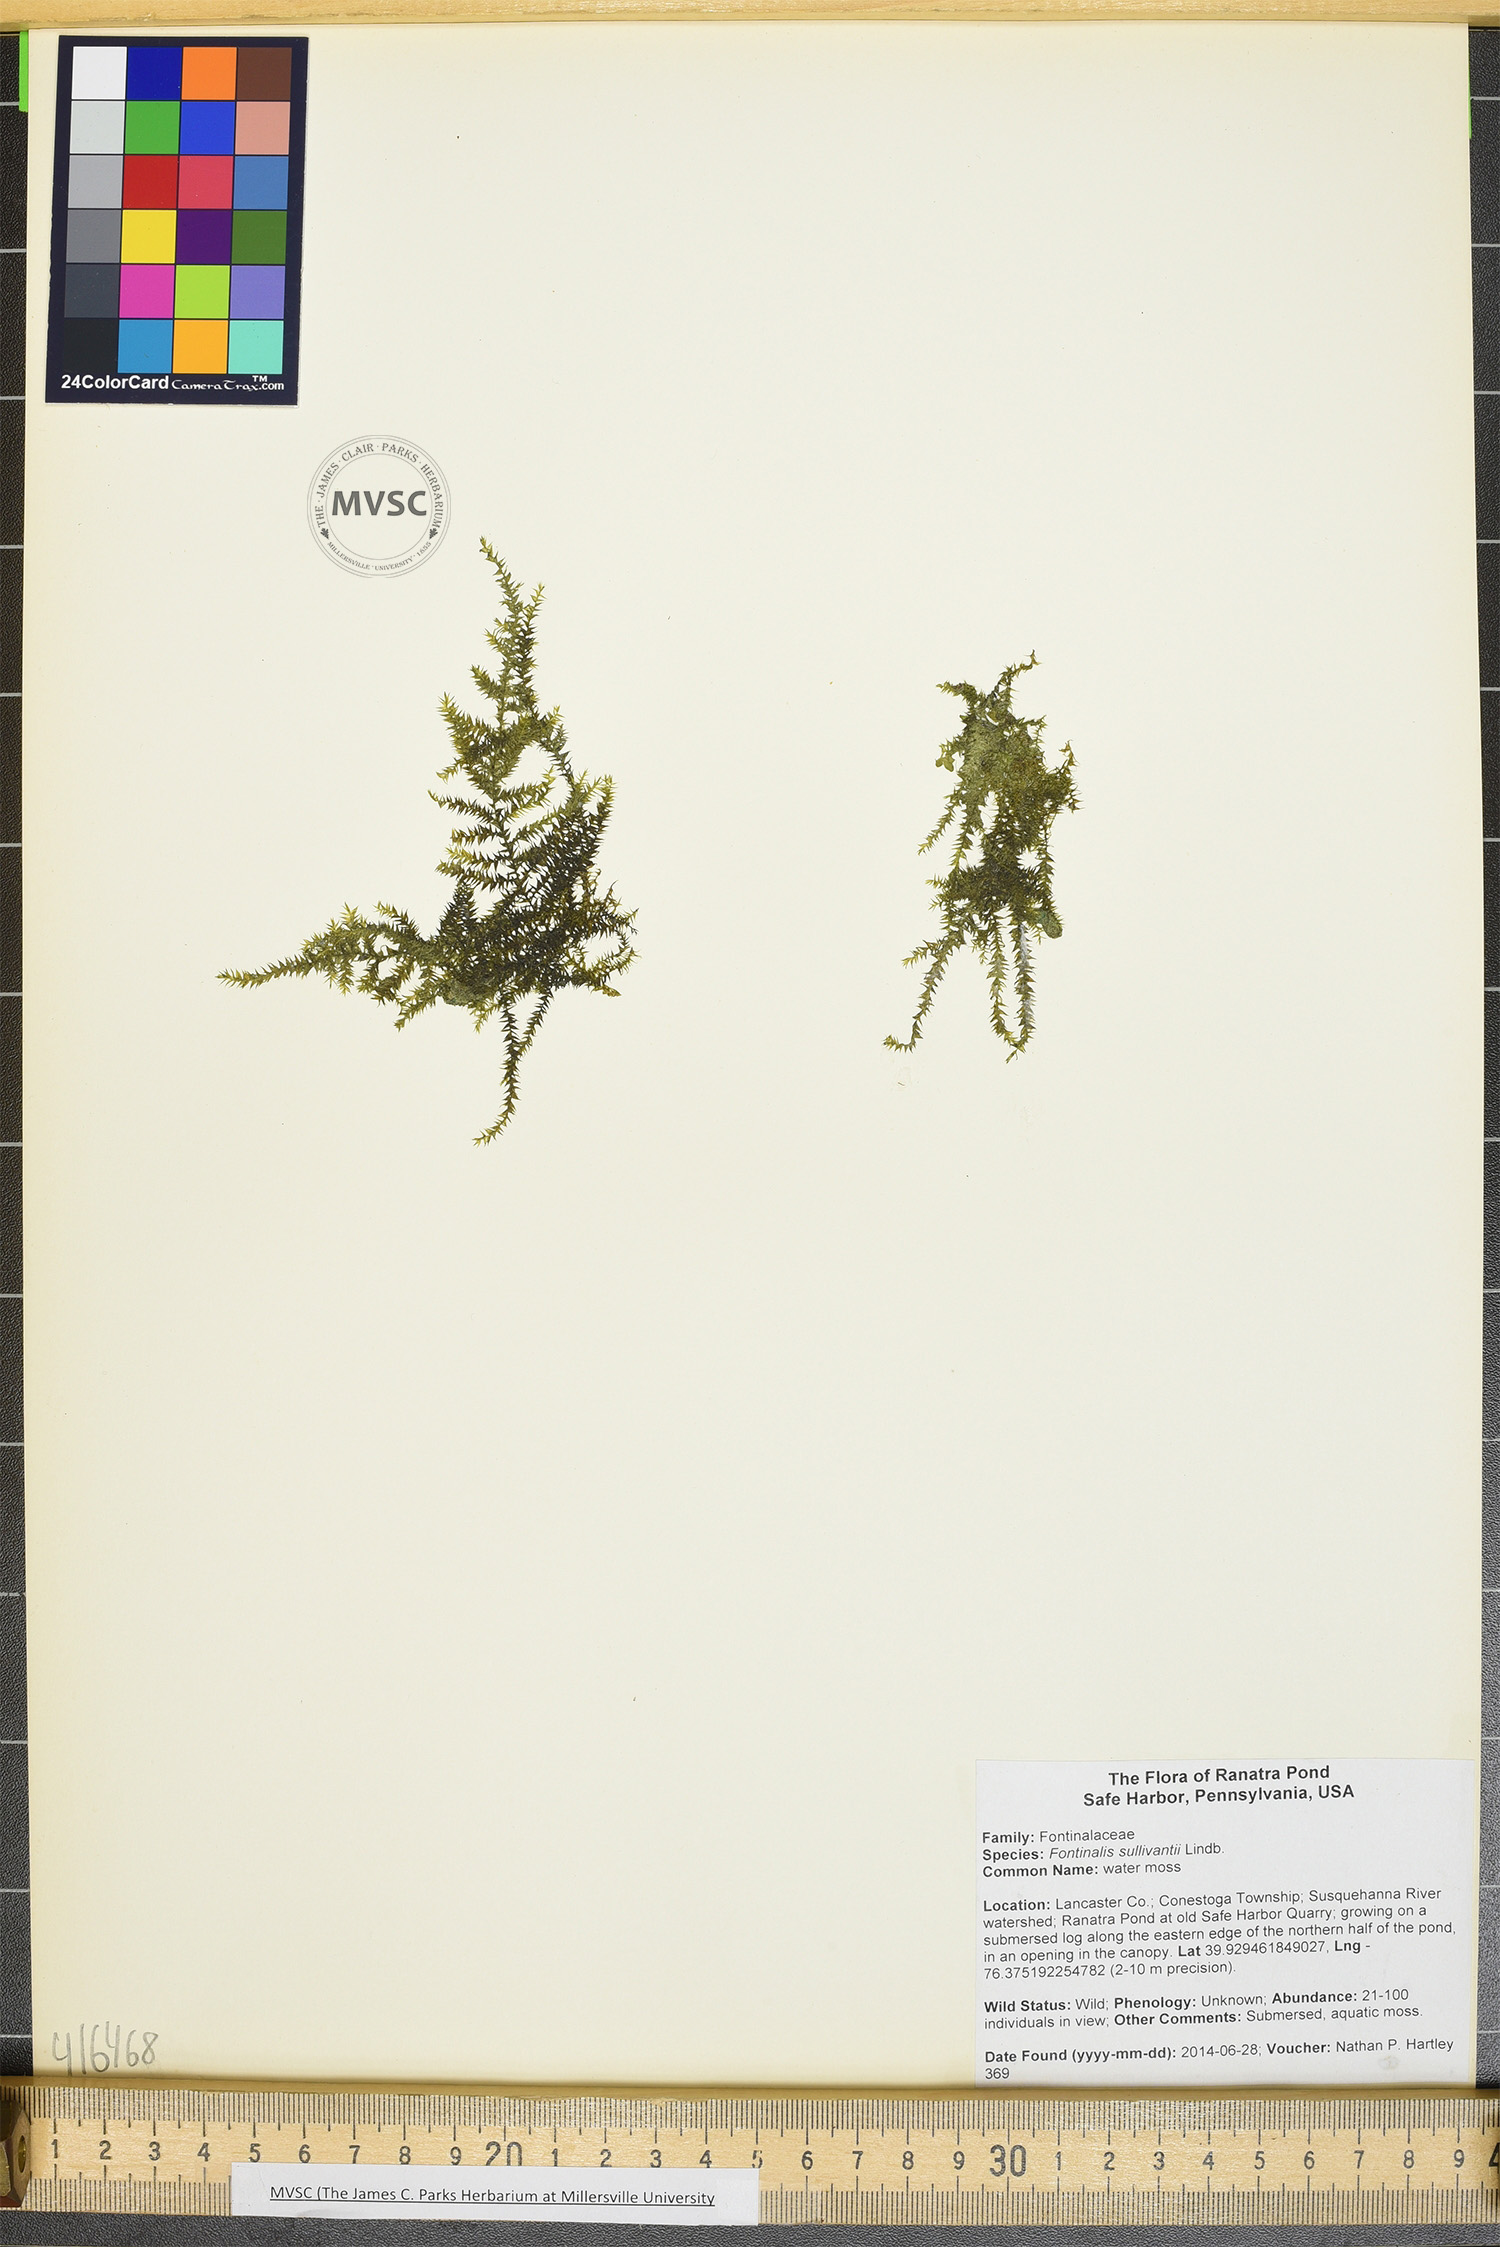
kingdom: Plantae
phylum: Bryophyta
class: Bryopsida
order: Hypnales
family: Amblystegiaceae
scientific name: Amblystegiaceae
